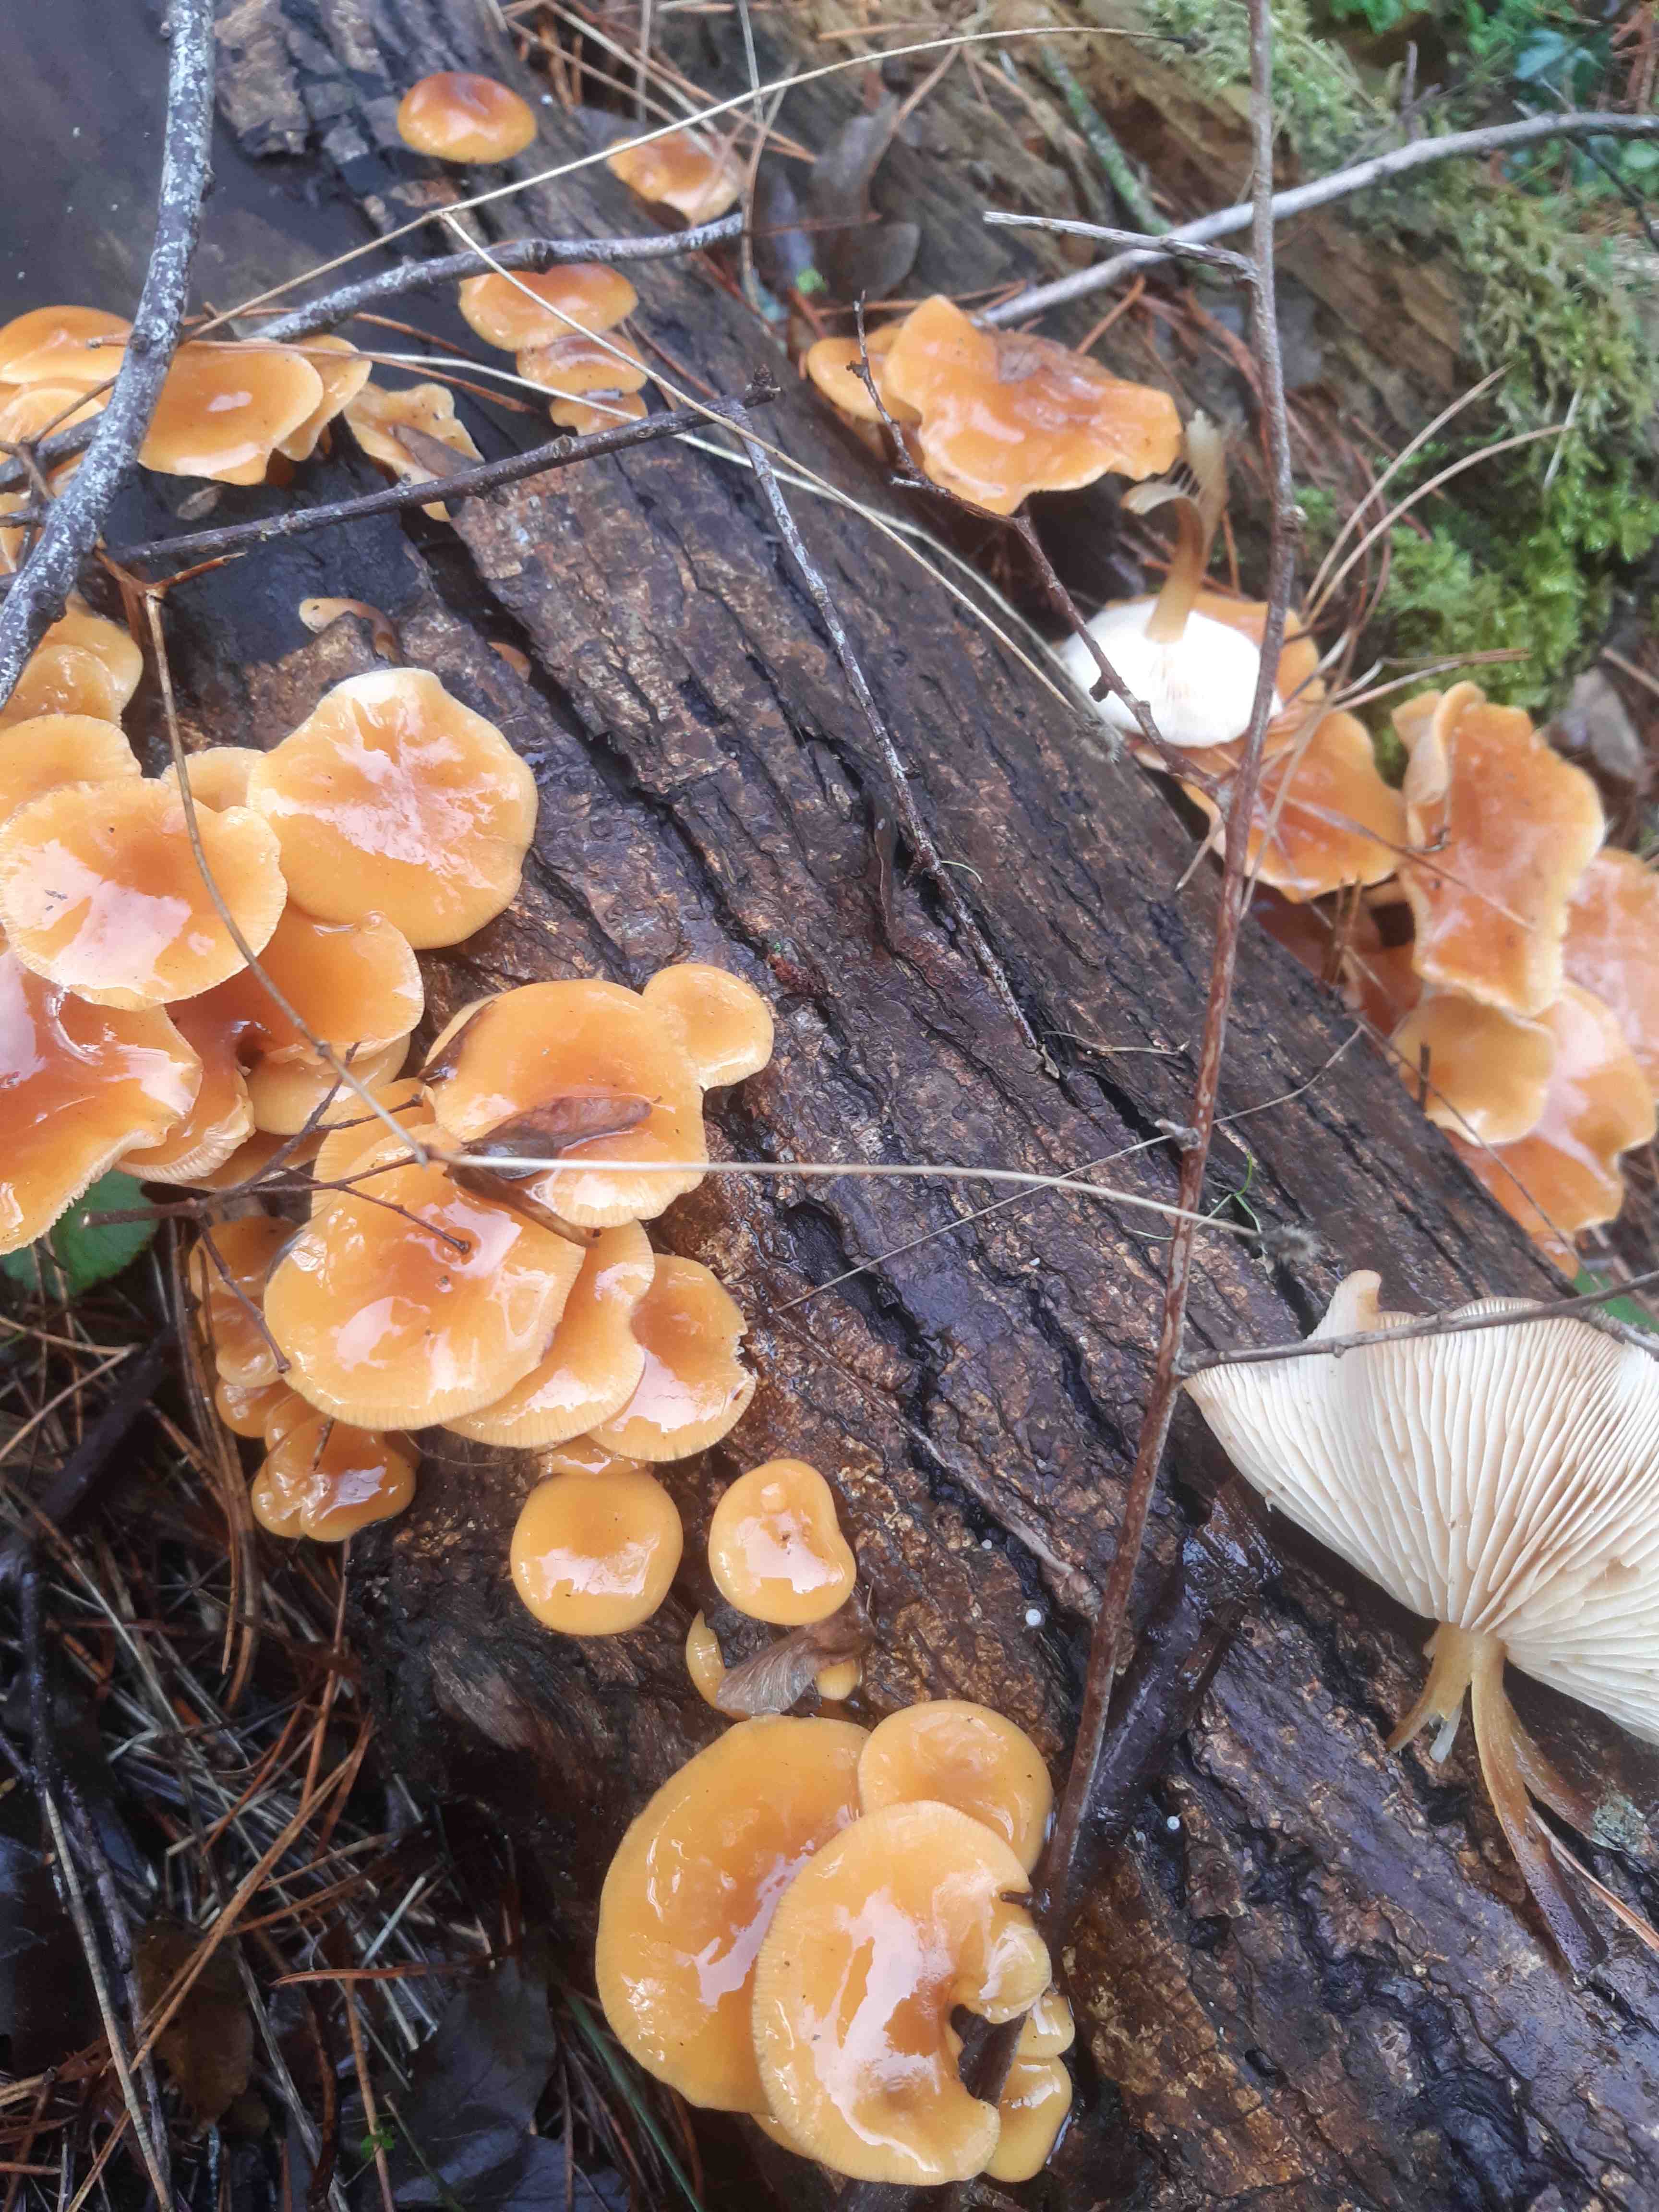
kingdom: Fungi
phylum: Basidiomycota
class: Agaricomycetes
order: Agaricales
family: Physalacriaceae
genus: Flammulina
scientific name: Flammulina
